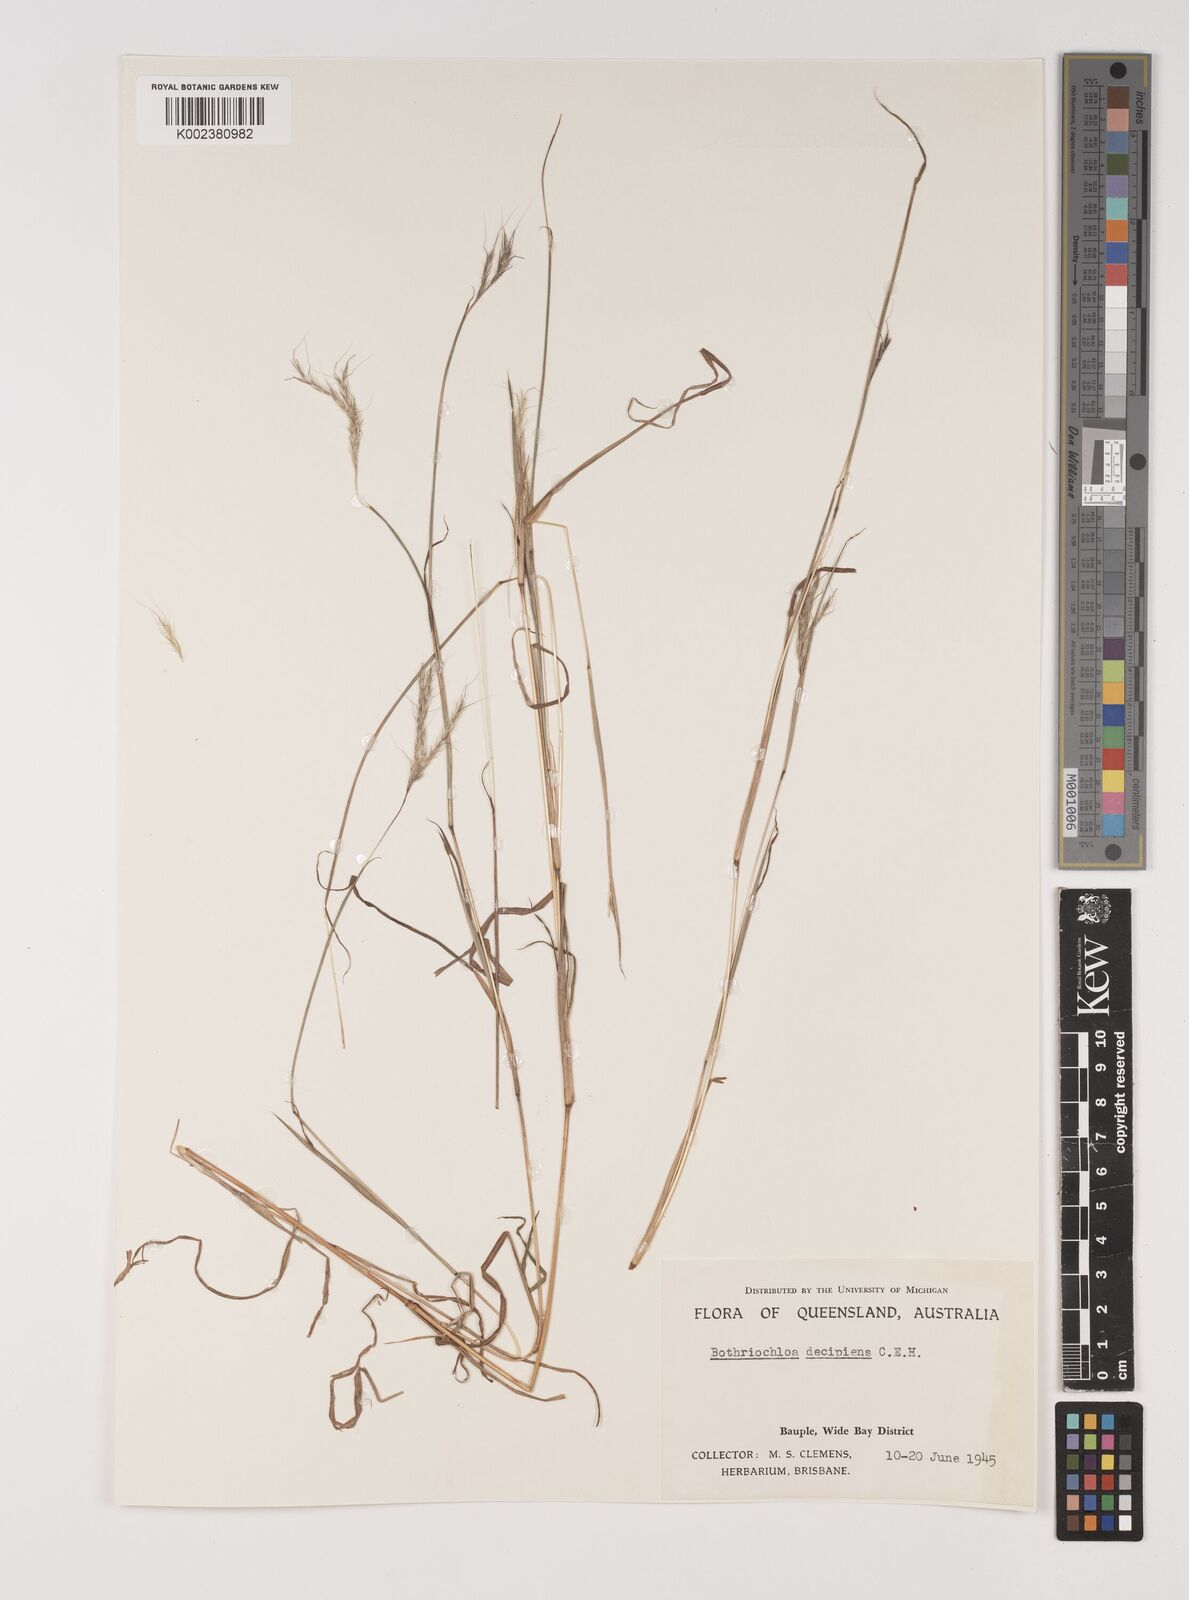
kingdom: Plantae
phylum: Tracheophyta
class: Liliopsida
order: Poales
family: Poaceae
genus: Bothriochloa
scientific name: Bothriochloa decipiens
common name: Pitted-bluegrass
